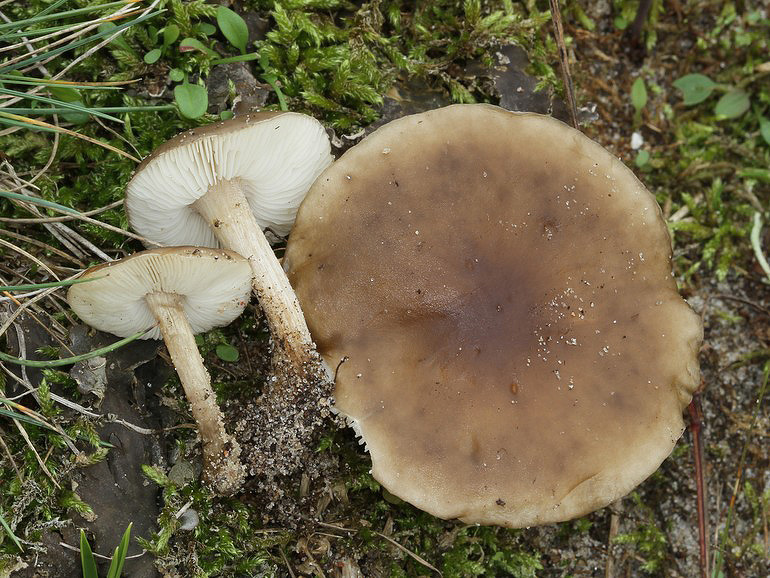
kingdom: Fungi
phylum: Basidiomycota
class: Agaricomycetes
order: Agaricales
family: Tricholomataceae
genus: Melanoleuca
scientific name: Melanoleuca polioleuca
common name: almindelig munkehat
